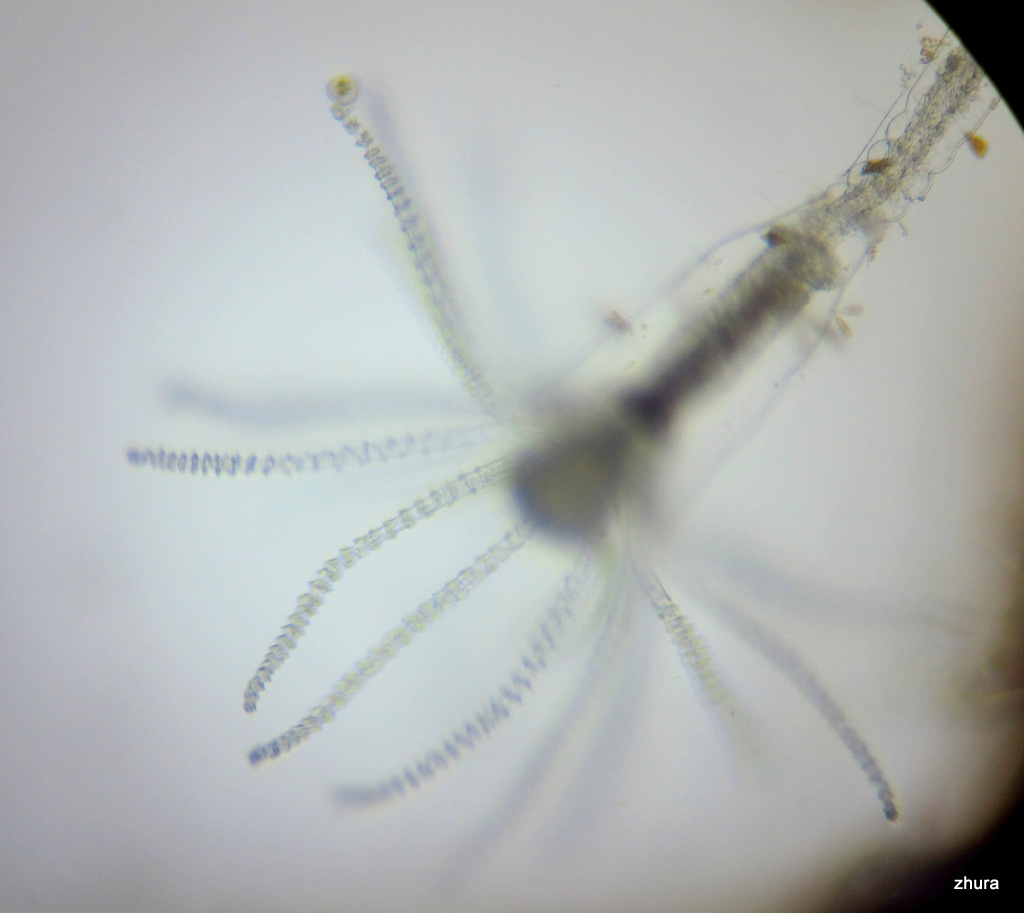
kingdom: Animalia
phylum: Cnidaria
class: Hydrozoa
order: Leptothecata
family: Campanulariidae
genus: Obelia
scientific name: Obelia
